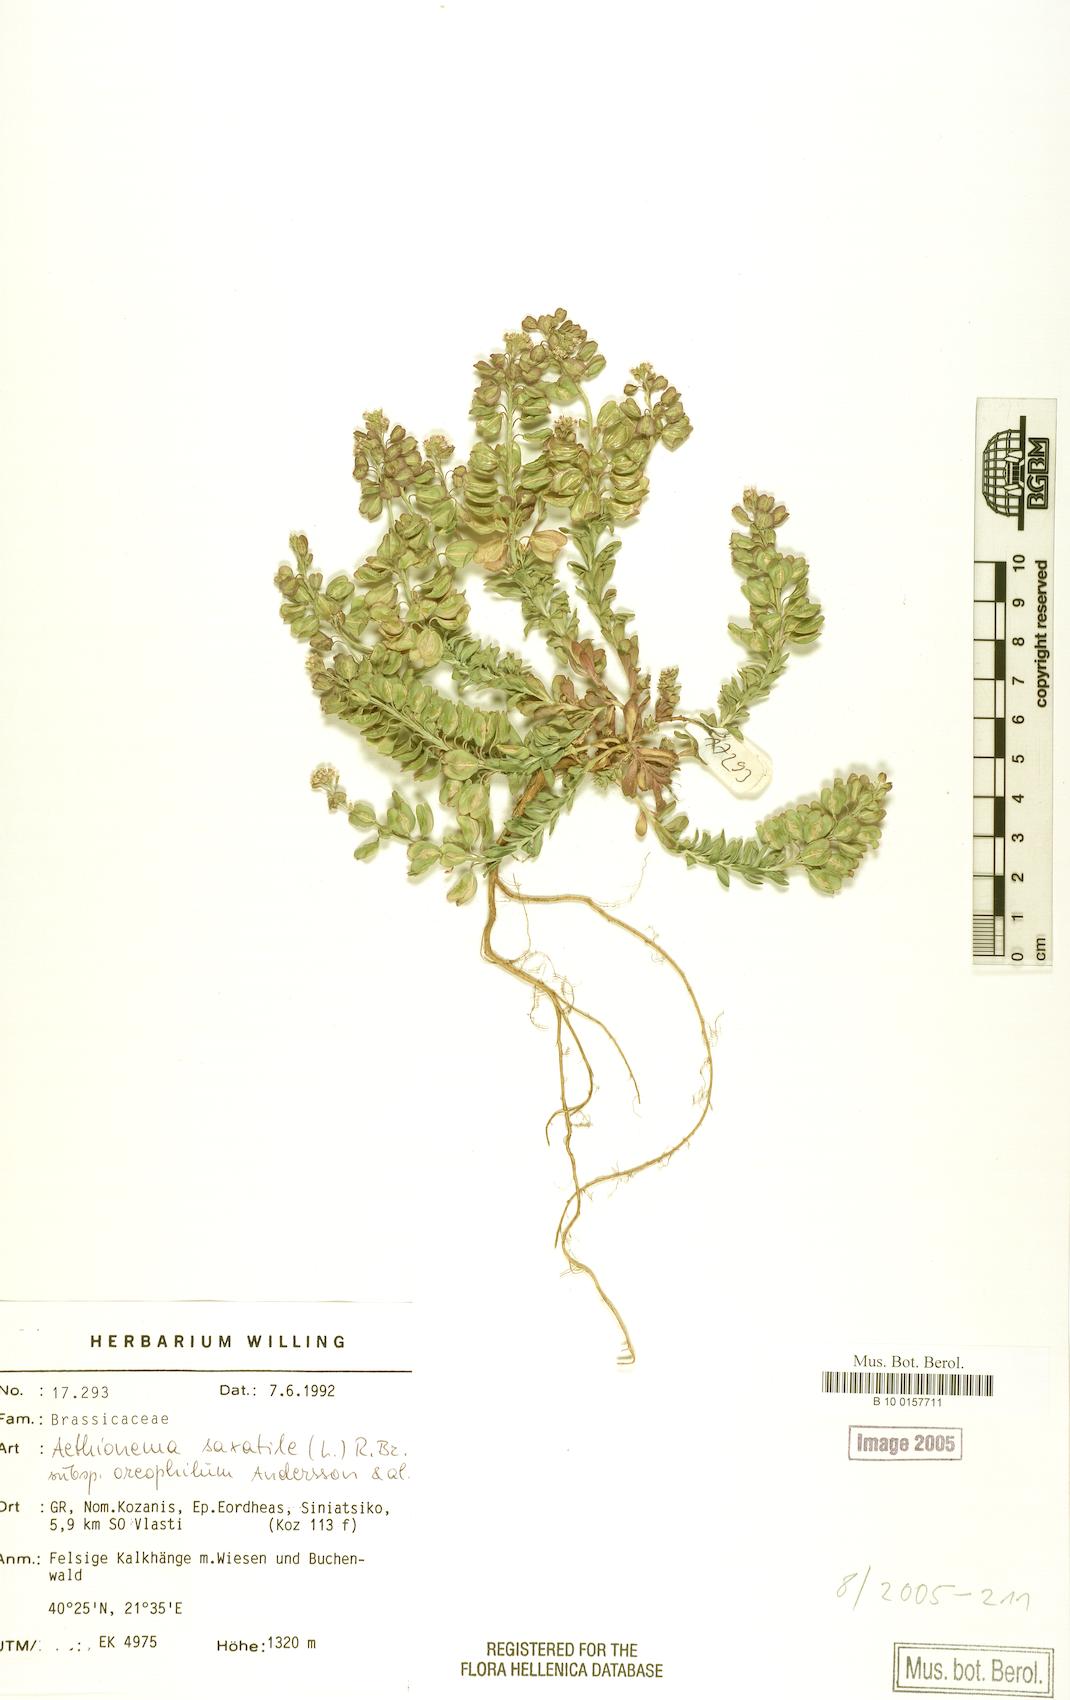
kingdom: Plantae
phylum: Tracheophyta
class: Magnoliopsida
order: Brassicales
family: Brassicaceae
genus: Aethionema
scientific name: Aethionema saxatile
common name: Burnt candytuft
